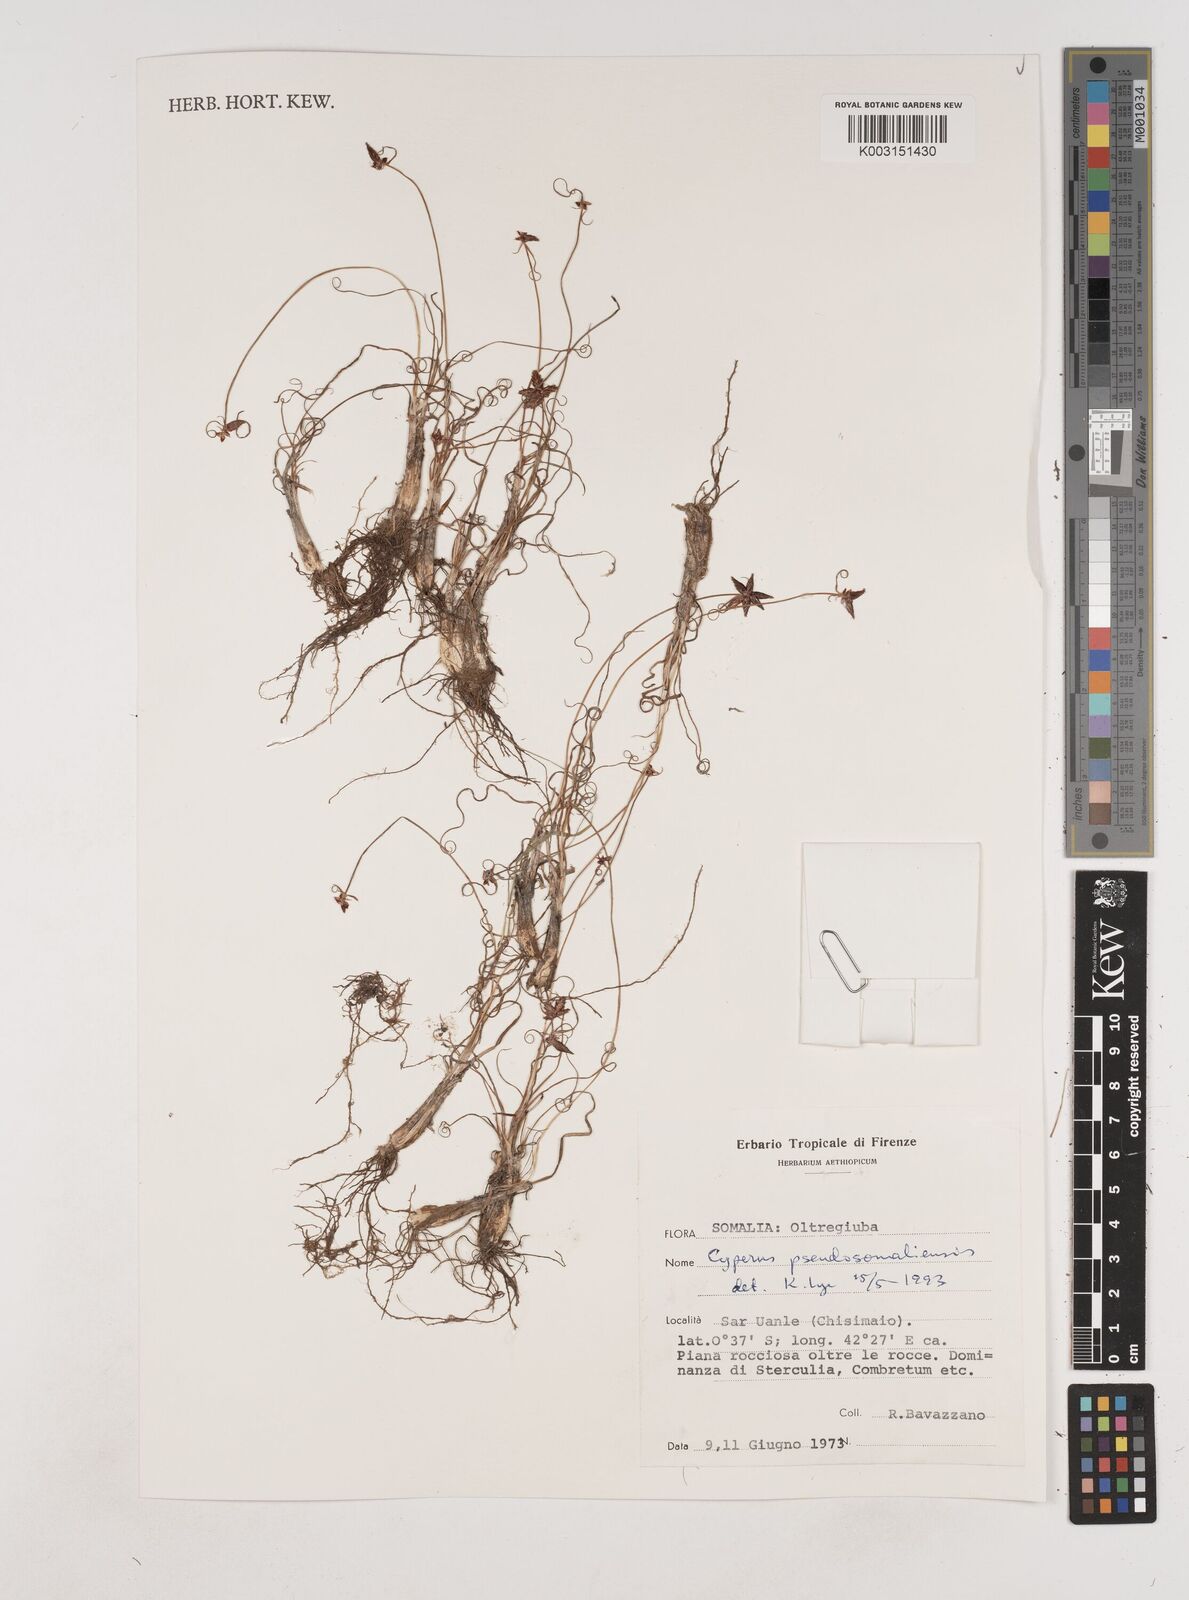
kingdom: Plantae
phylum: Tracheophyta
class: Liliopsida
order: Poales
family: Cyperaceae
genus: Cyperus
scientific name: Cyperus pseudosomaliensis
